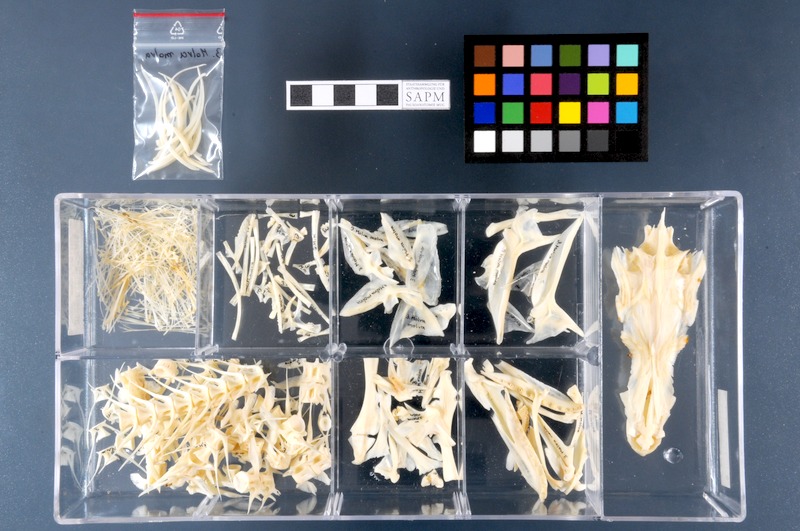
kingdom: Animalia
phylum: Chordata
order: Gadiformes
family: Lotidae
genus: Molva
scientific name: Molva molva
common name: Ling
